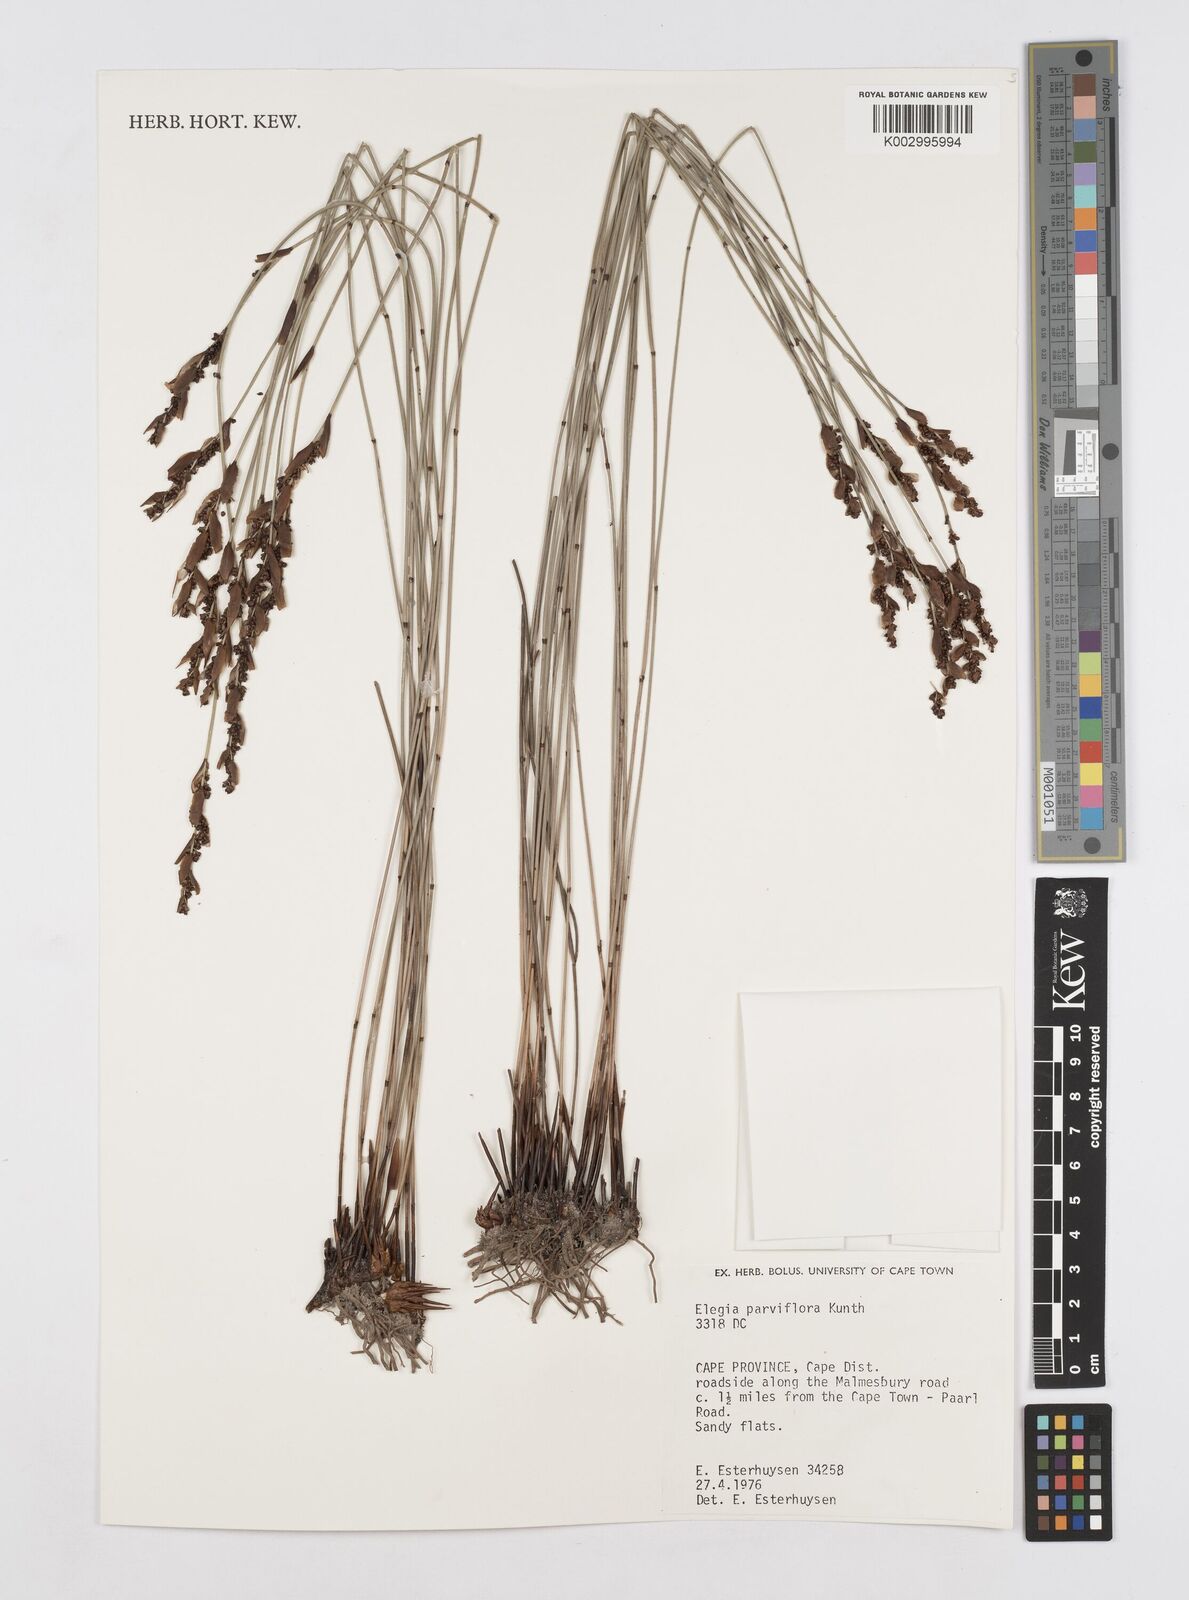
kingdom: Plantae
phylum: Tracheophyta
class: Liliopsida
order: Poales
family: Restionaceae
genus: Cannomois
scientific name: Cannomois parviflora
